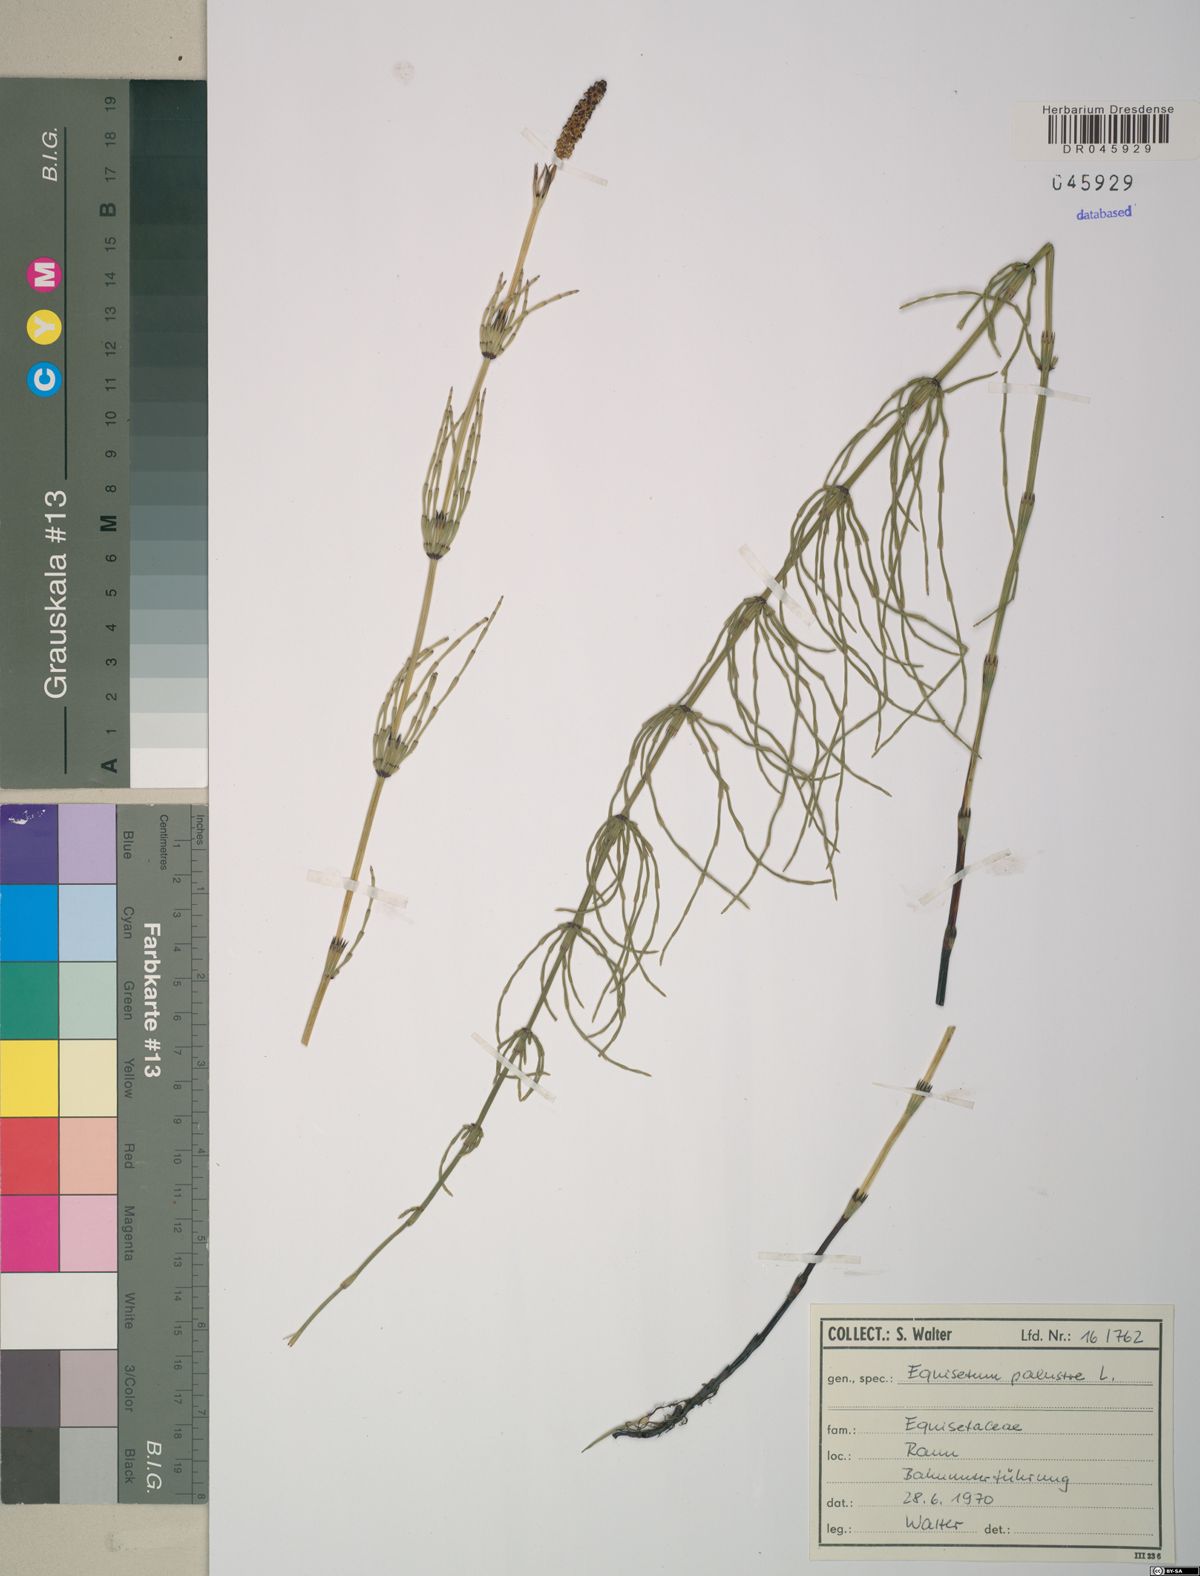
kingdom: Plantae
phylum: Tracheophyta
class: Polypodiopsida
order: Equisetales
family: Equisetaceae
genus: Equisetum
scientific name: Equisetum palustre
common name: Marsh horsetail
